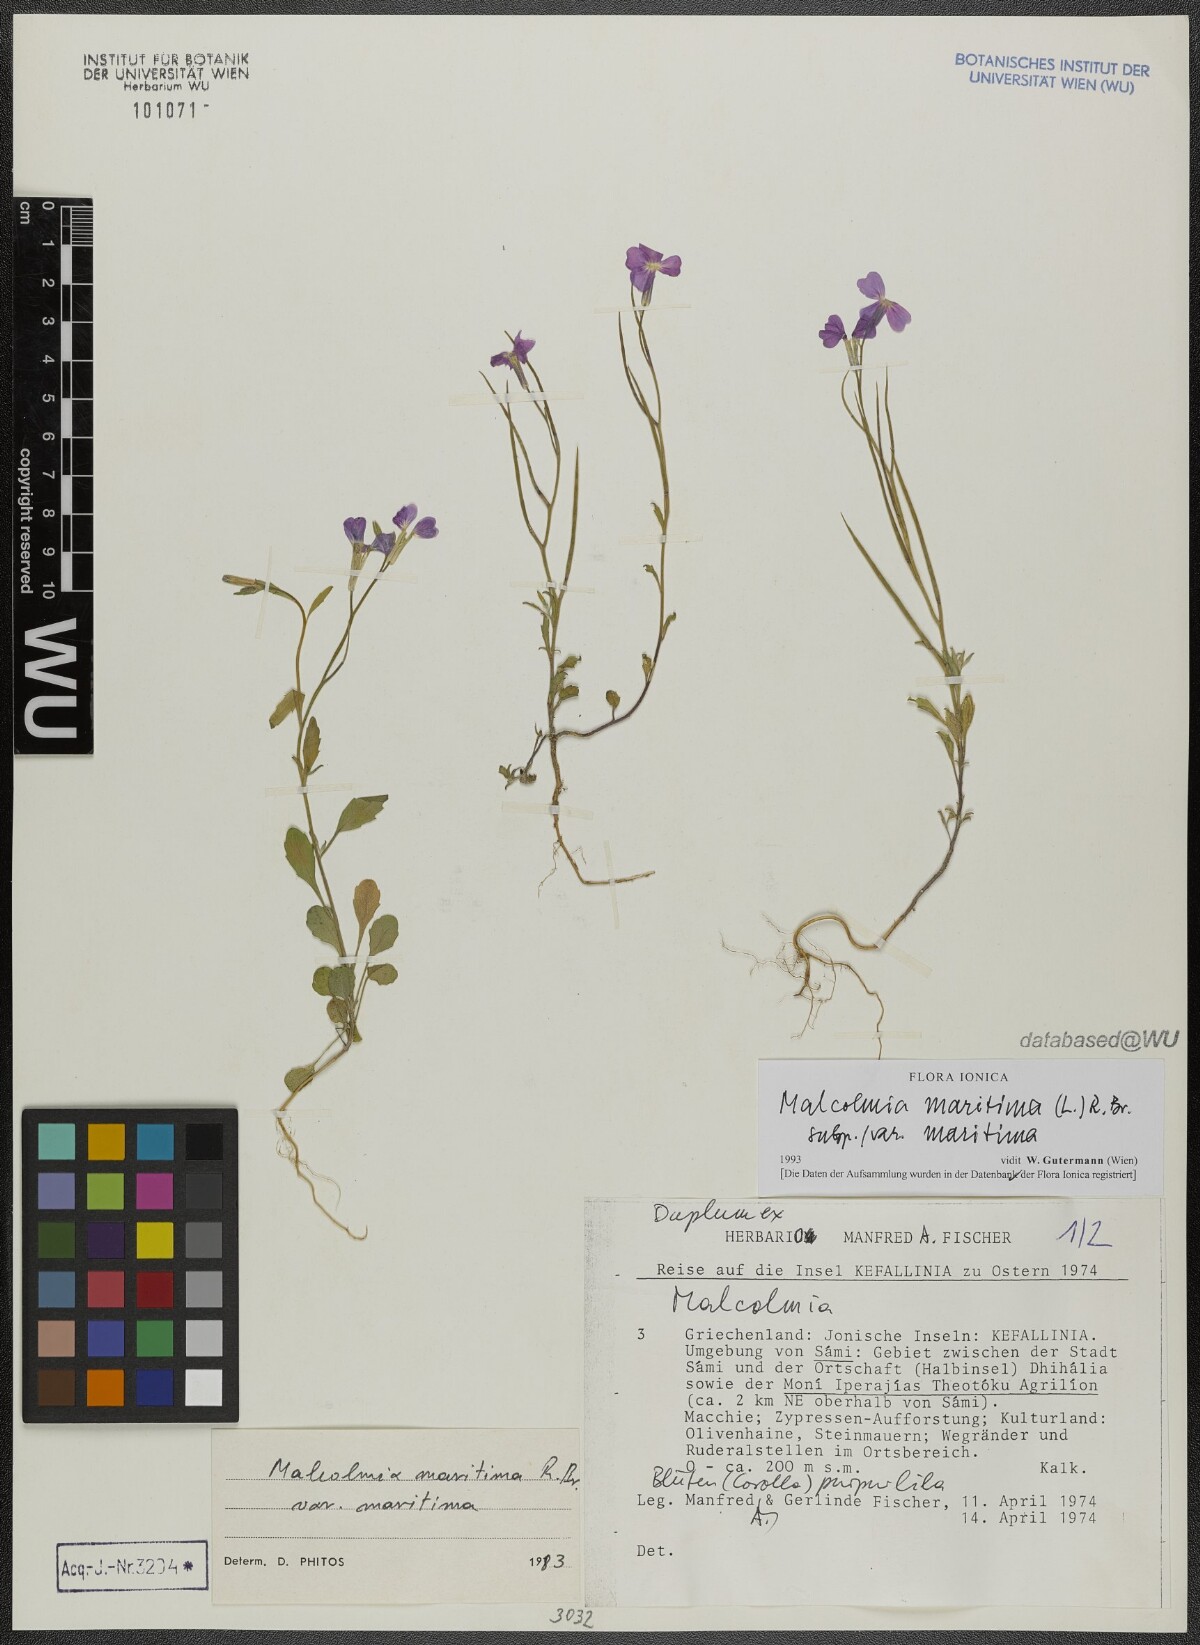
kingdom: Plantae
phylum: Tracheophyta
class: Magnoliopsida
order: Brassicales
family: Brassicaceae
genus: Malcolmia
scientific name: Malcolmia maritima
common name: Virginia stock
